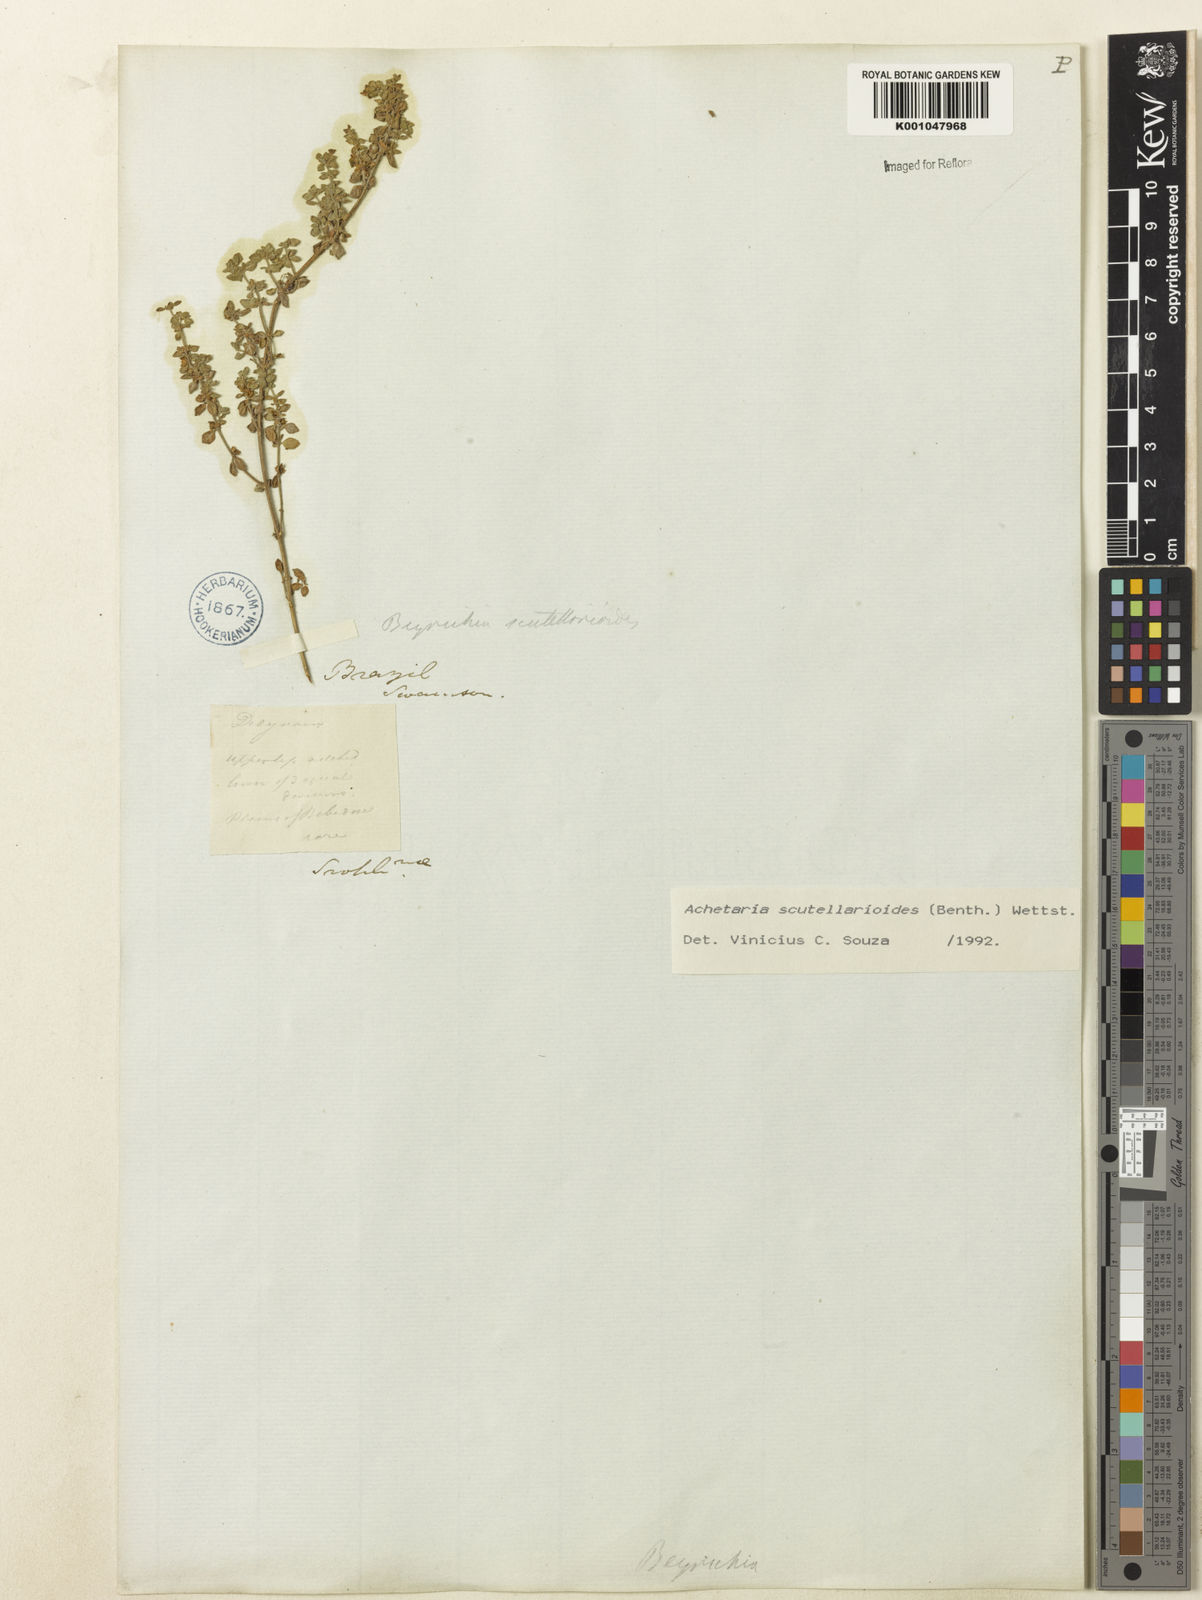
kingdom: Plantae
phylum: Tracheophyta
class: Magnoliopsida
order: Lamiales
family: Plantaginaceae
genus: Matourea
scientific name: Matourea scutellarioides
